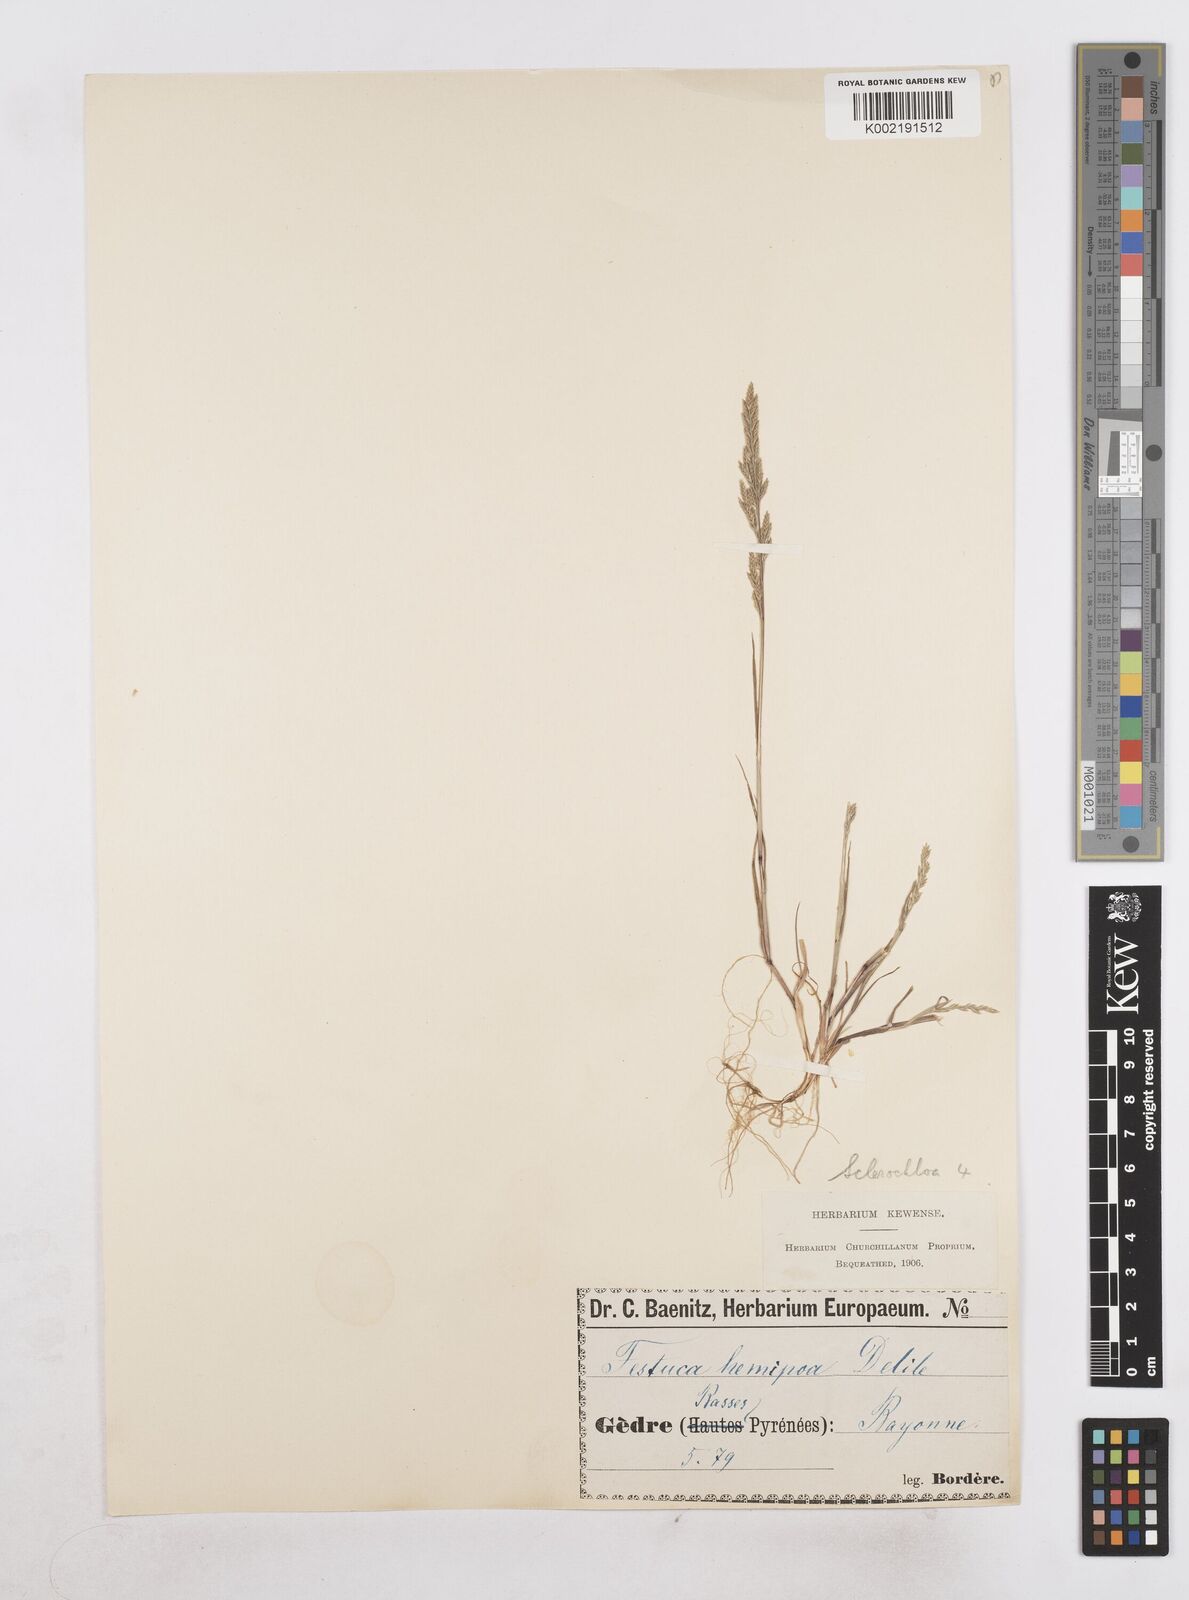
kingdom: Plantae
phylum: Tracheophyta
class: Liliopsida
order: Poales
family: Poaceae
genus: Catapodium
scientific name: Catapodium hemipoa
